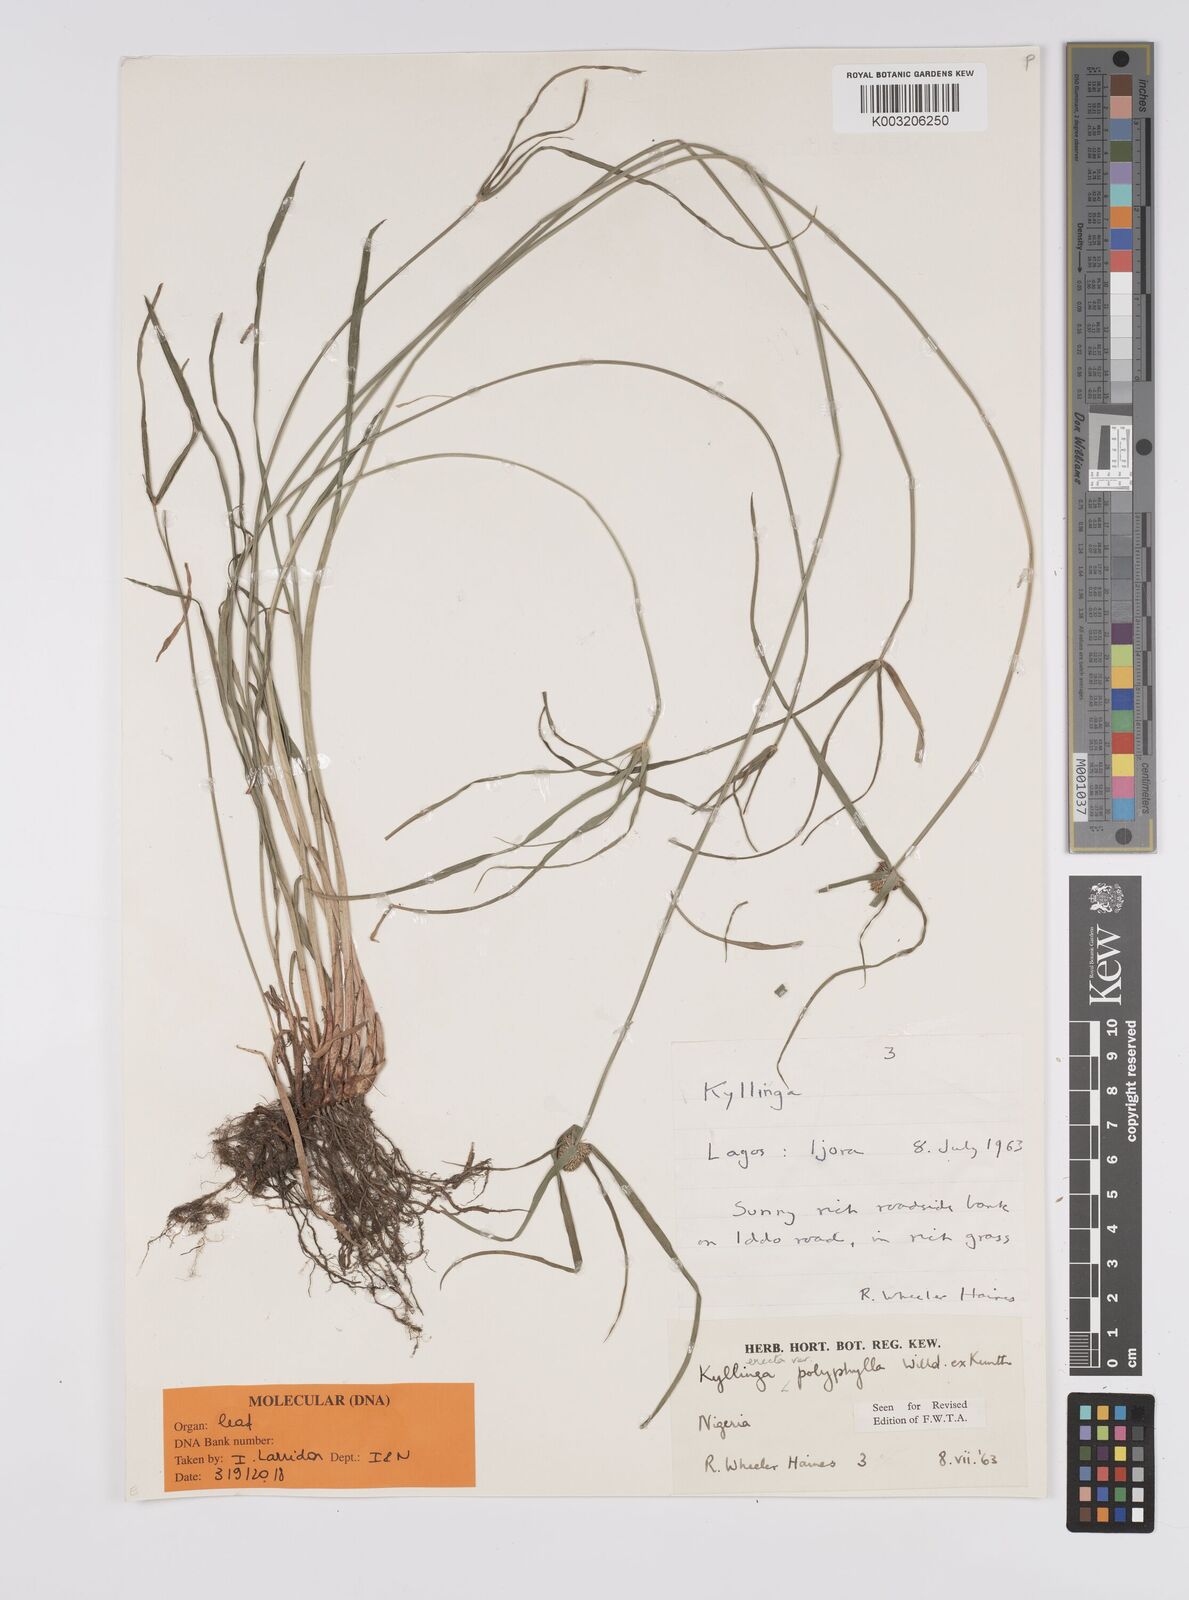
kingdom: Plantae
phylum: Tracheophyta
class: Liliopsida
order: Poales
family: Cyperaceae
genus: Cyperus
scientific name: Cyperus
